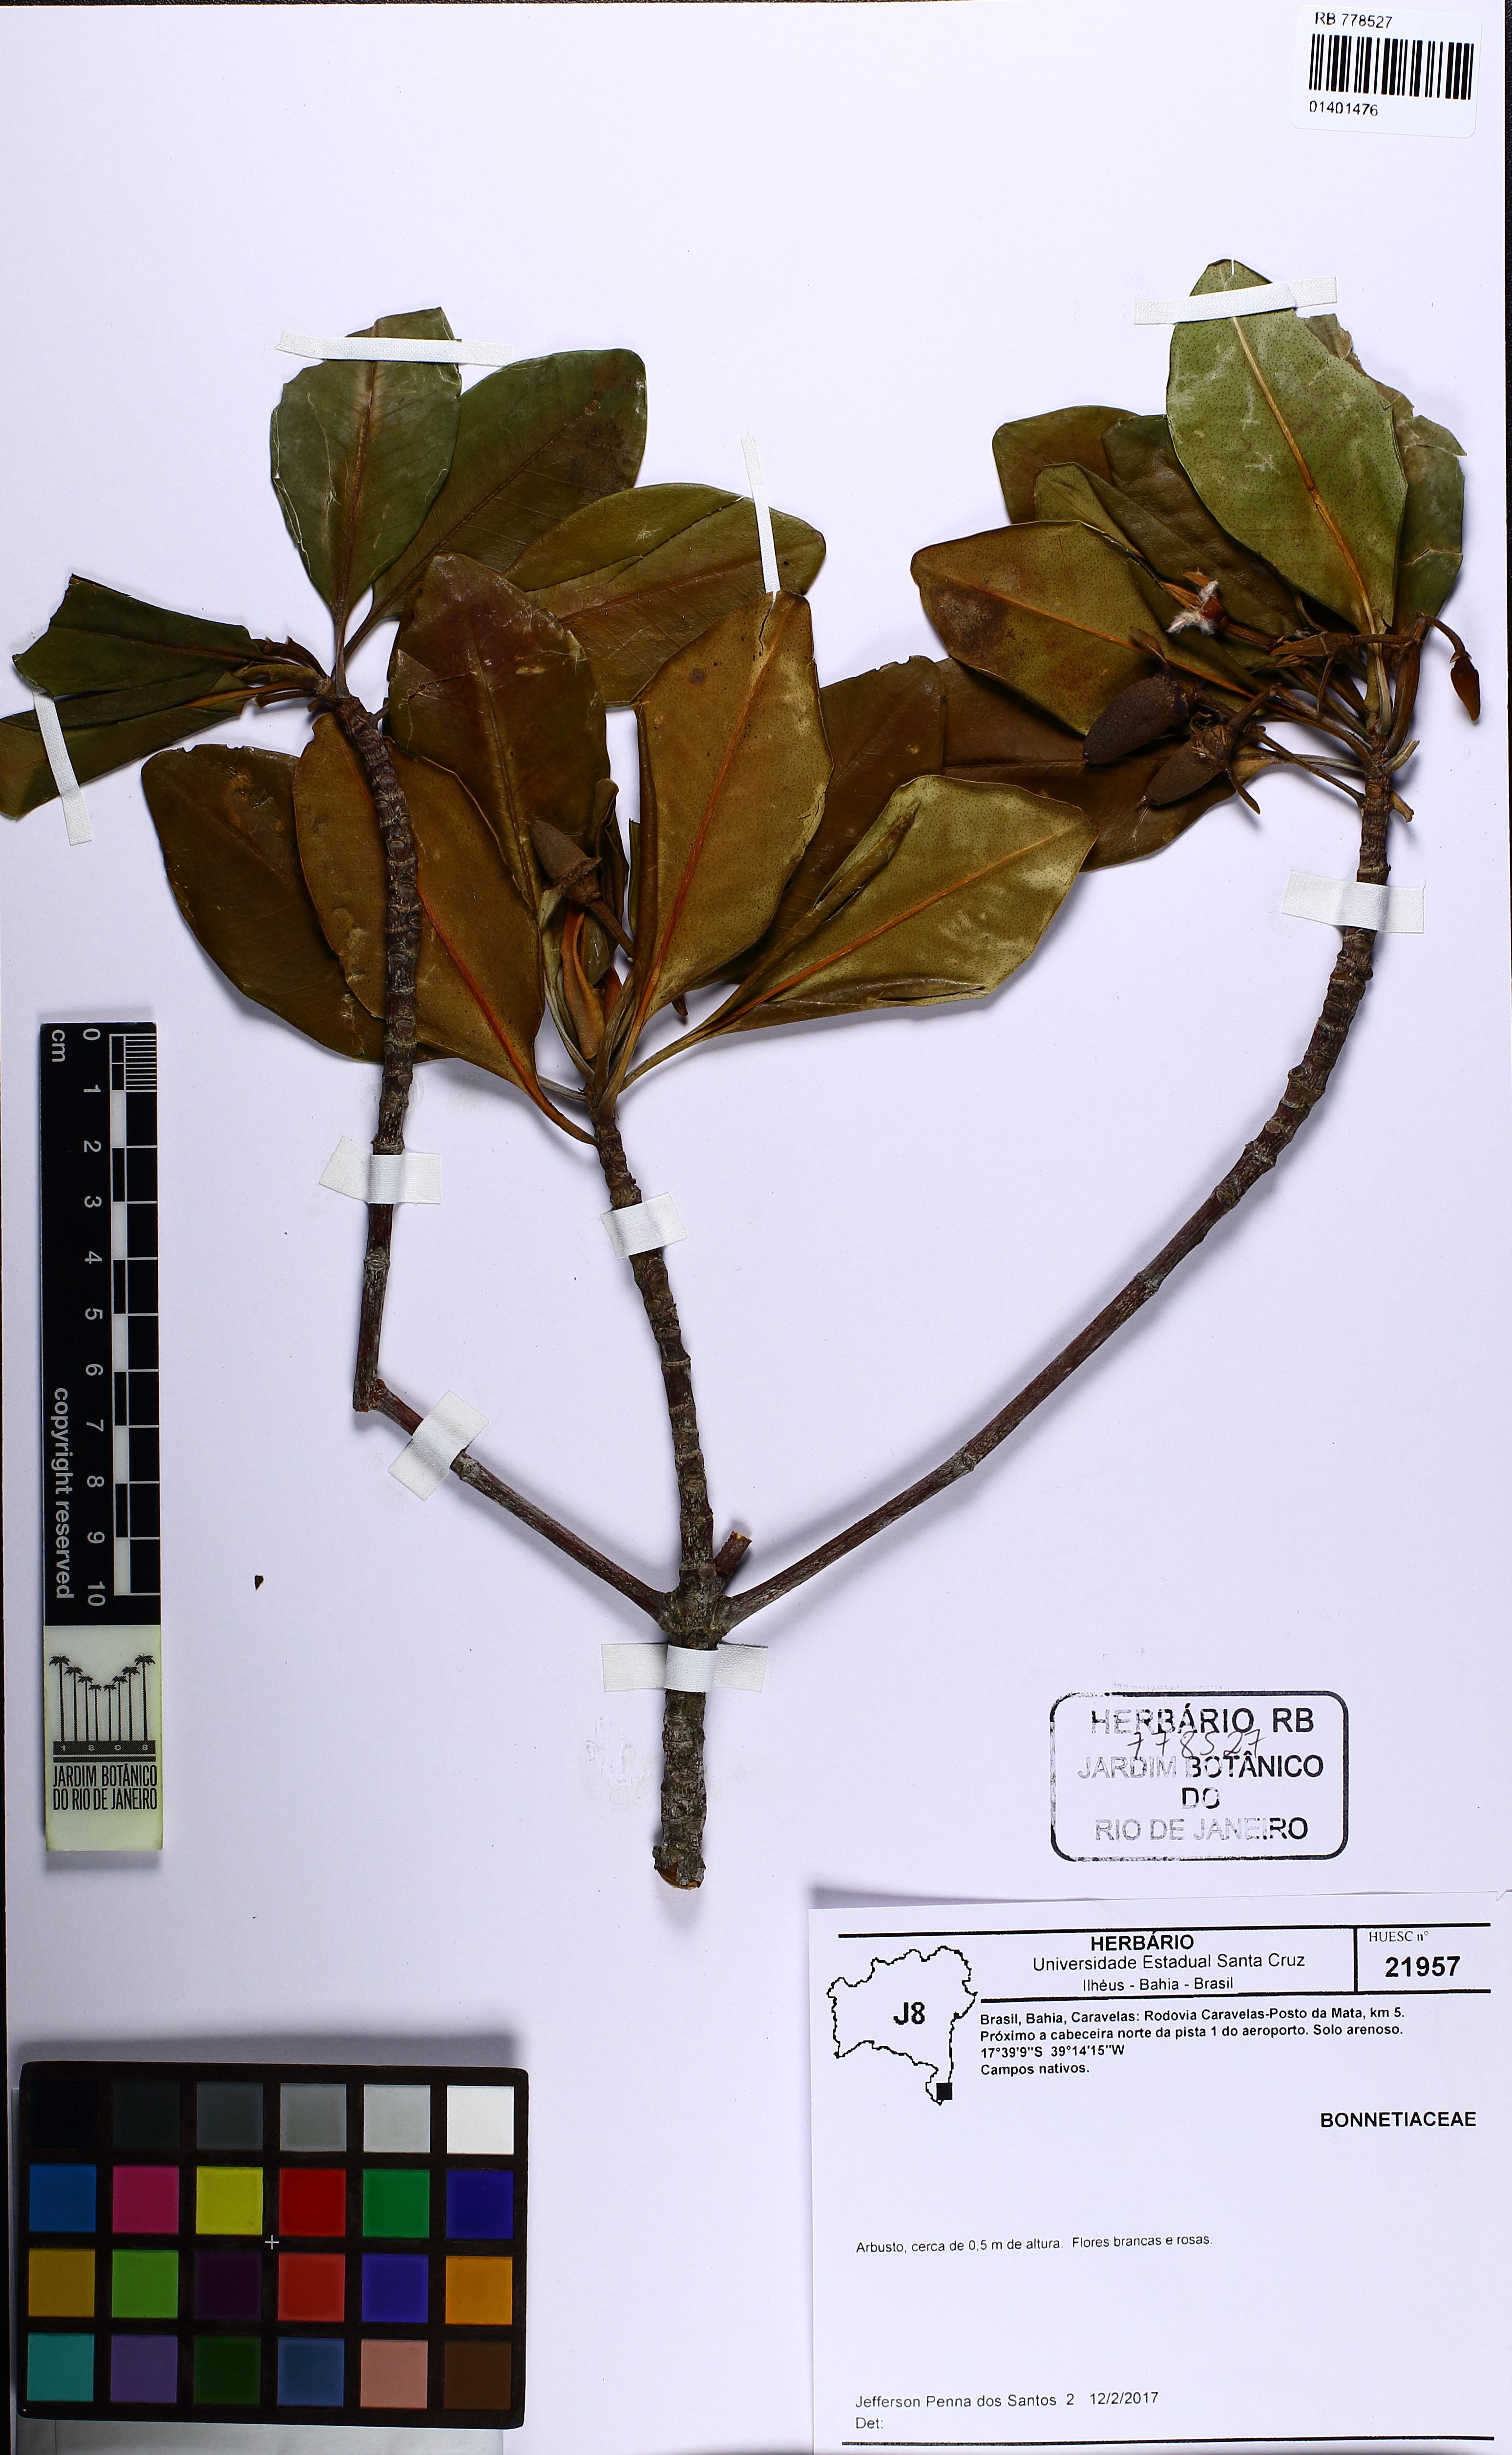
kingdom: Plantae
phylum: Tracheophyta
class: Magnoliopsida
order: Malpighiales
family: Bonnetiaceae
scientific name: Bonnetiaceae
